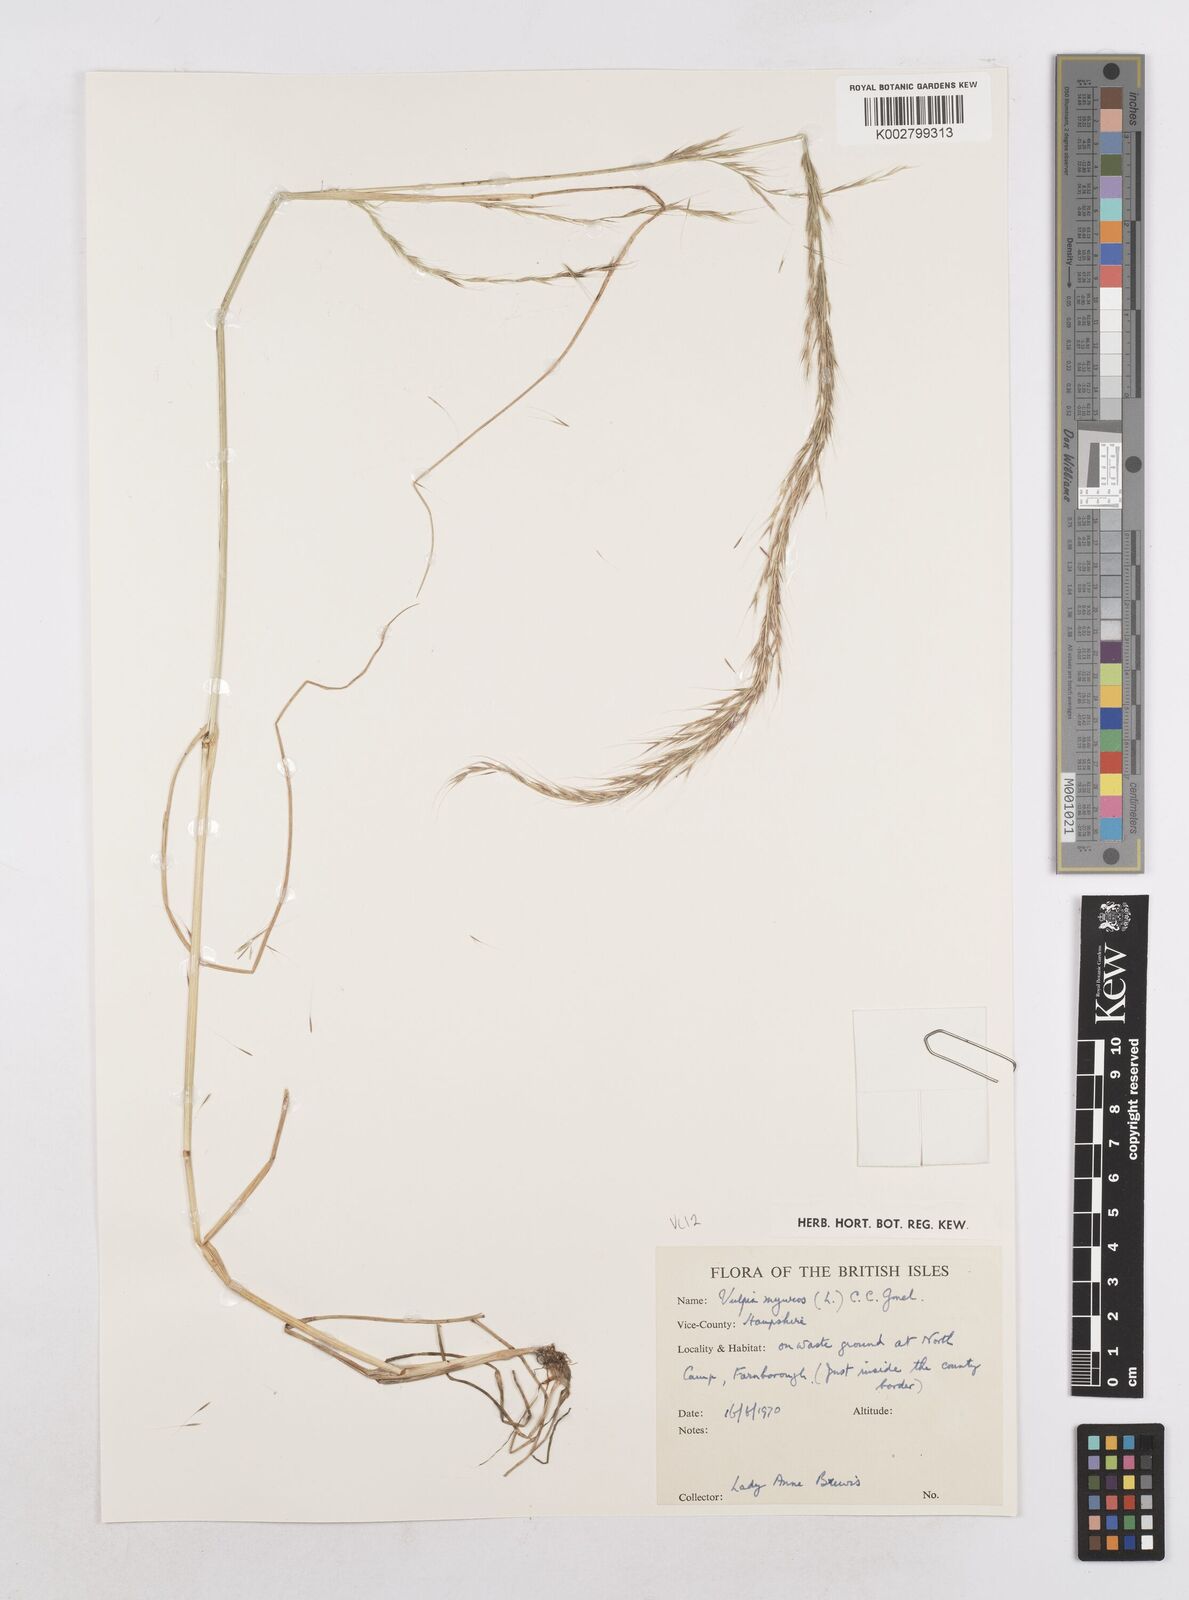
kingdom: Plantae
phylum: Tracheophyta
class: Liliopsida
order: Poales
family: Poaceae
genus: Festuca
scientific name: Festuca myuros
